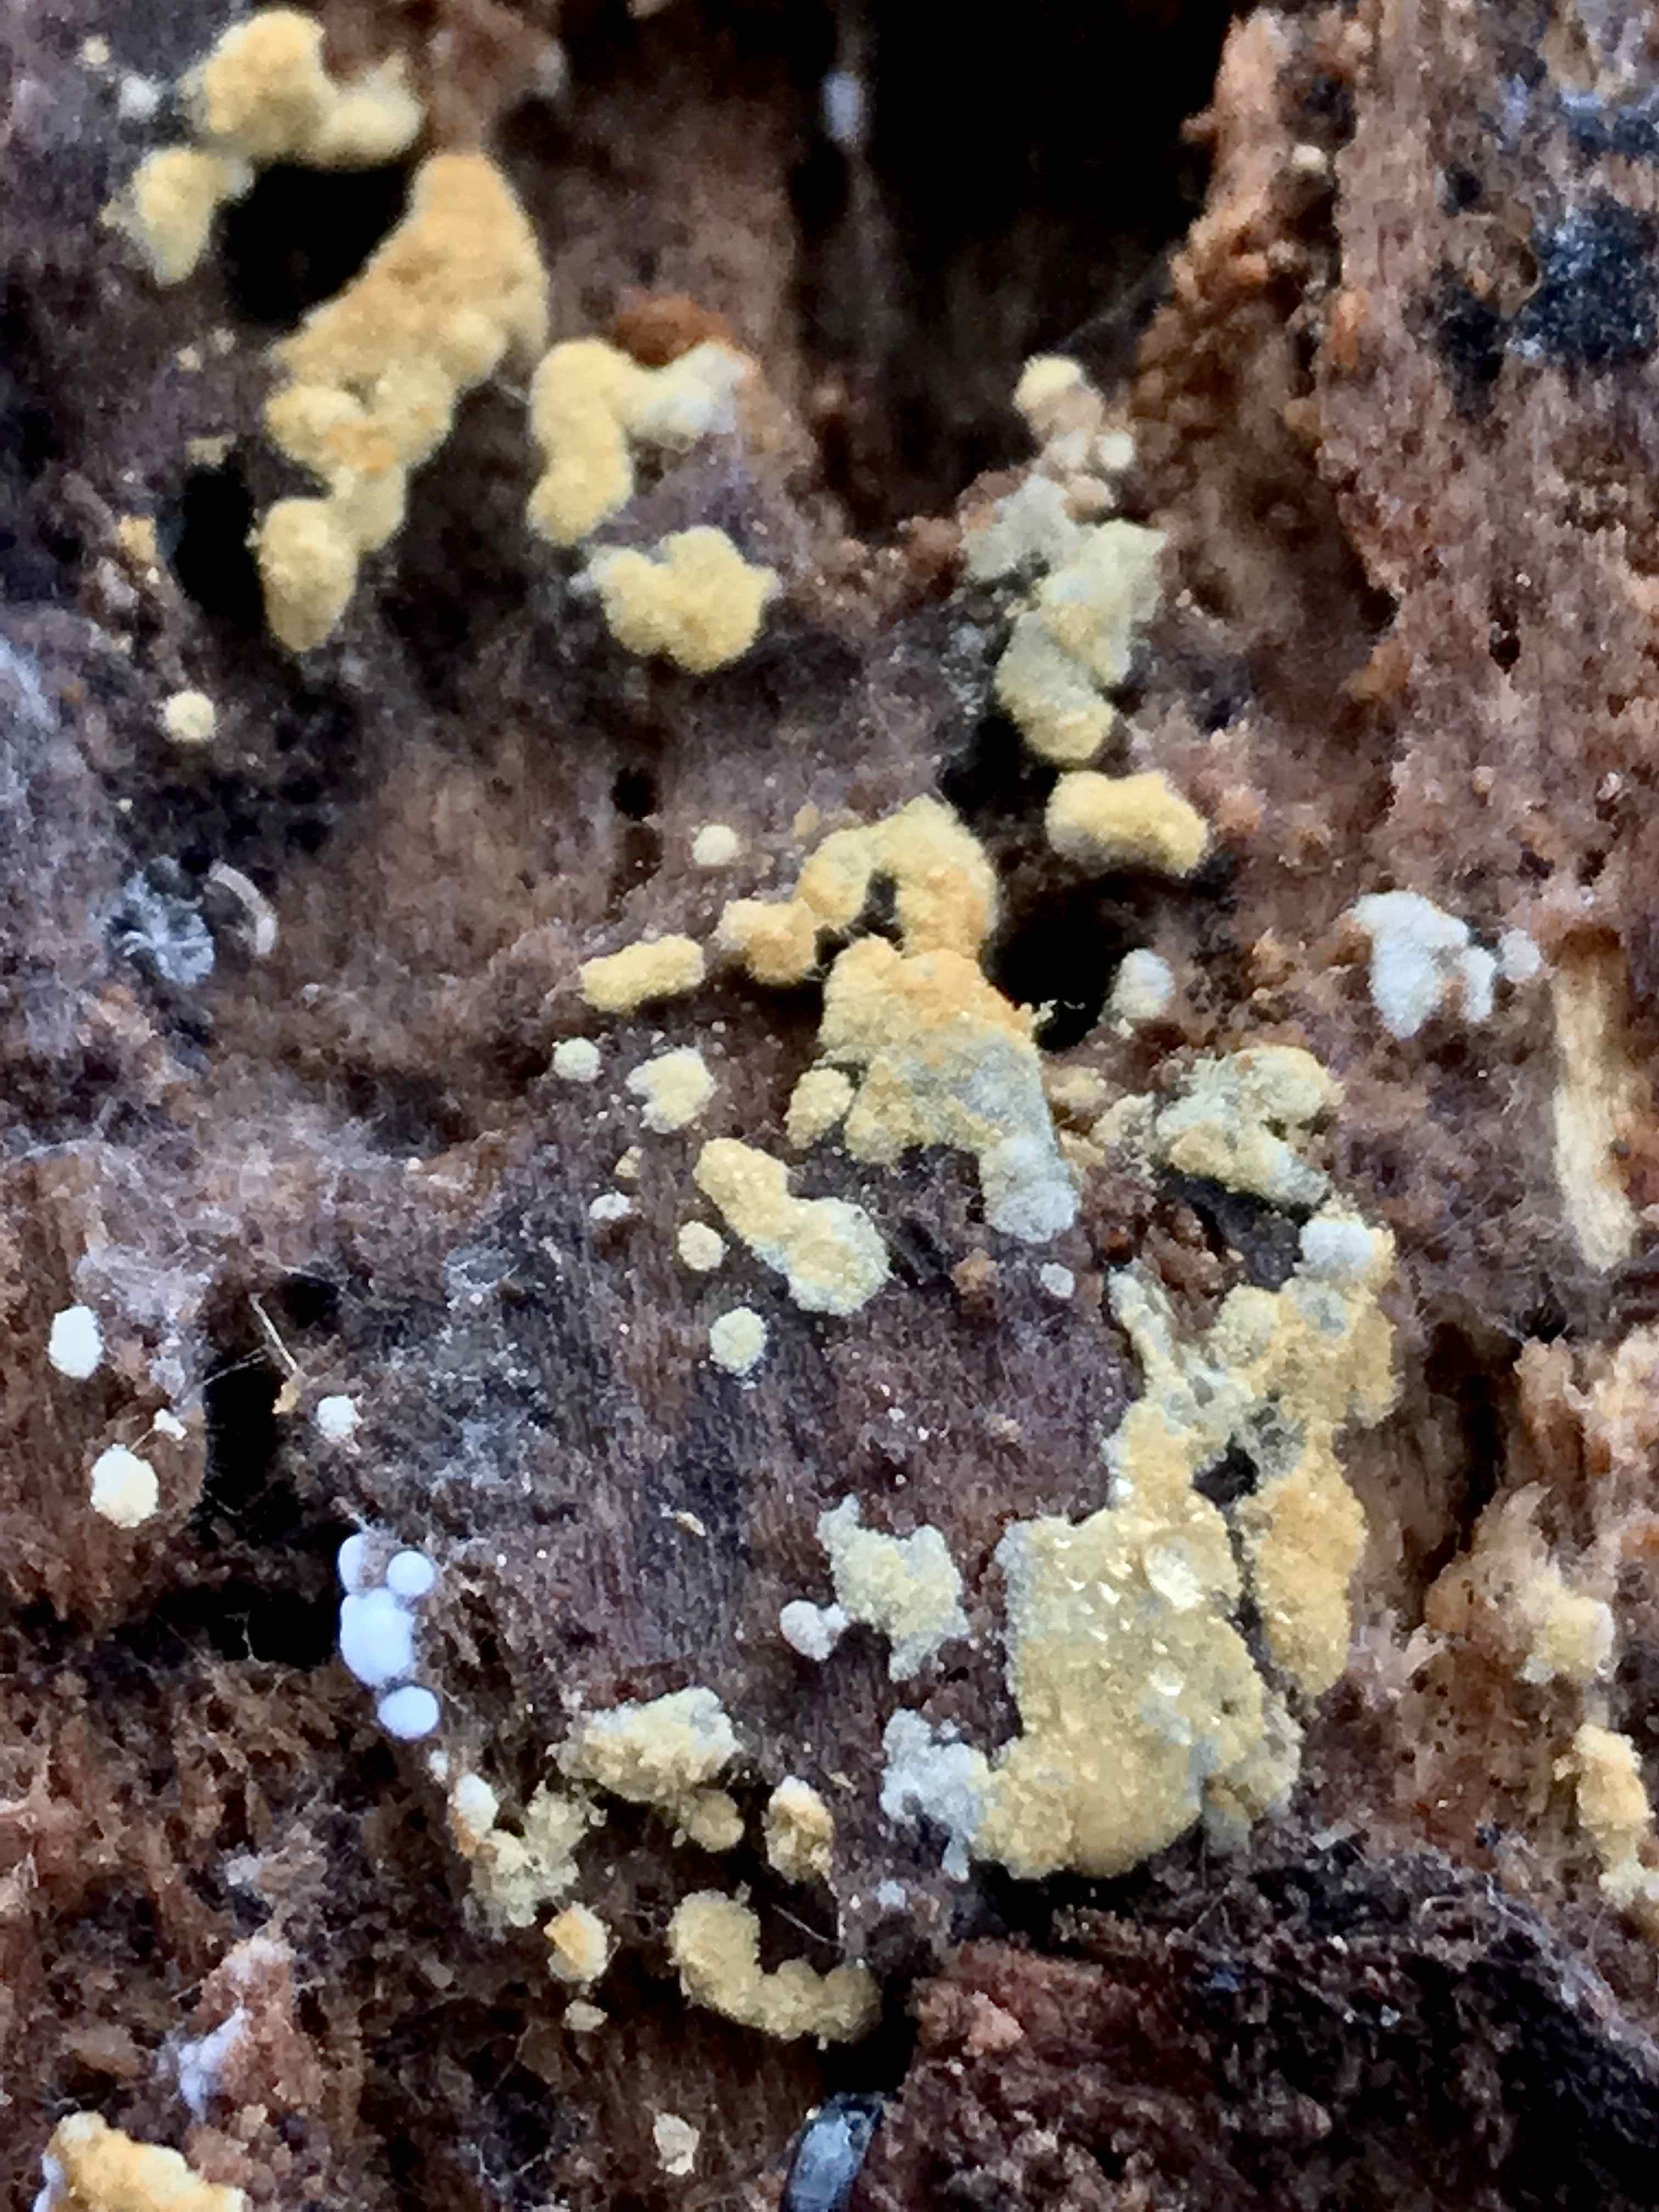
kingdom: Fungi
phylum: Basidiomycota
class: Agaricomycetes
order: Cantharellales
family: Botryobasidiaceae
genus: Botryobasidium
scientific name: Botryobasidium aureum
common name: gylden spindhinde
